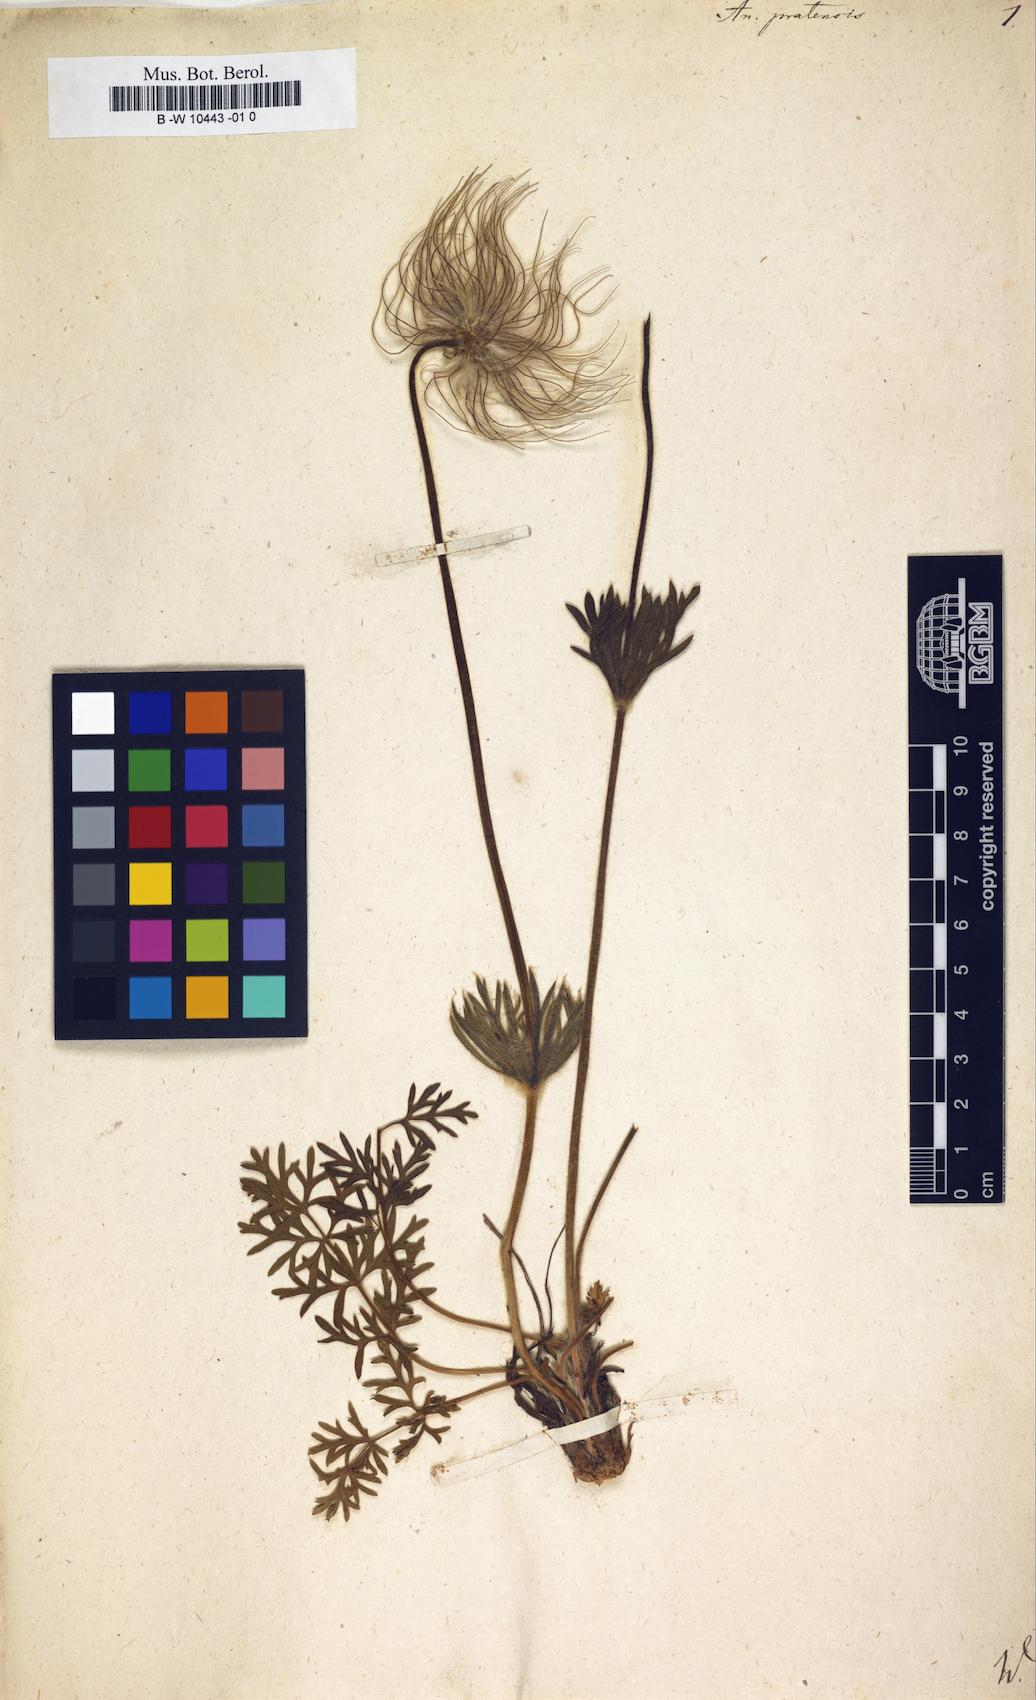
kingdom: Plantae
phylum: Tracheophyta
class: Magnoliopsida
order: Ranunculales
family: Ranunculaceae
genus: Pulsatilla
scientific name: Pulsatilla pratensis
